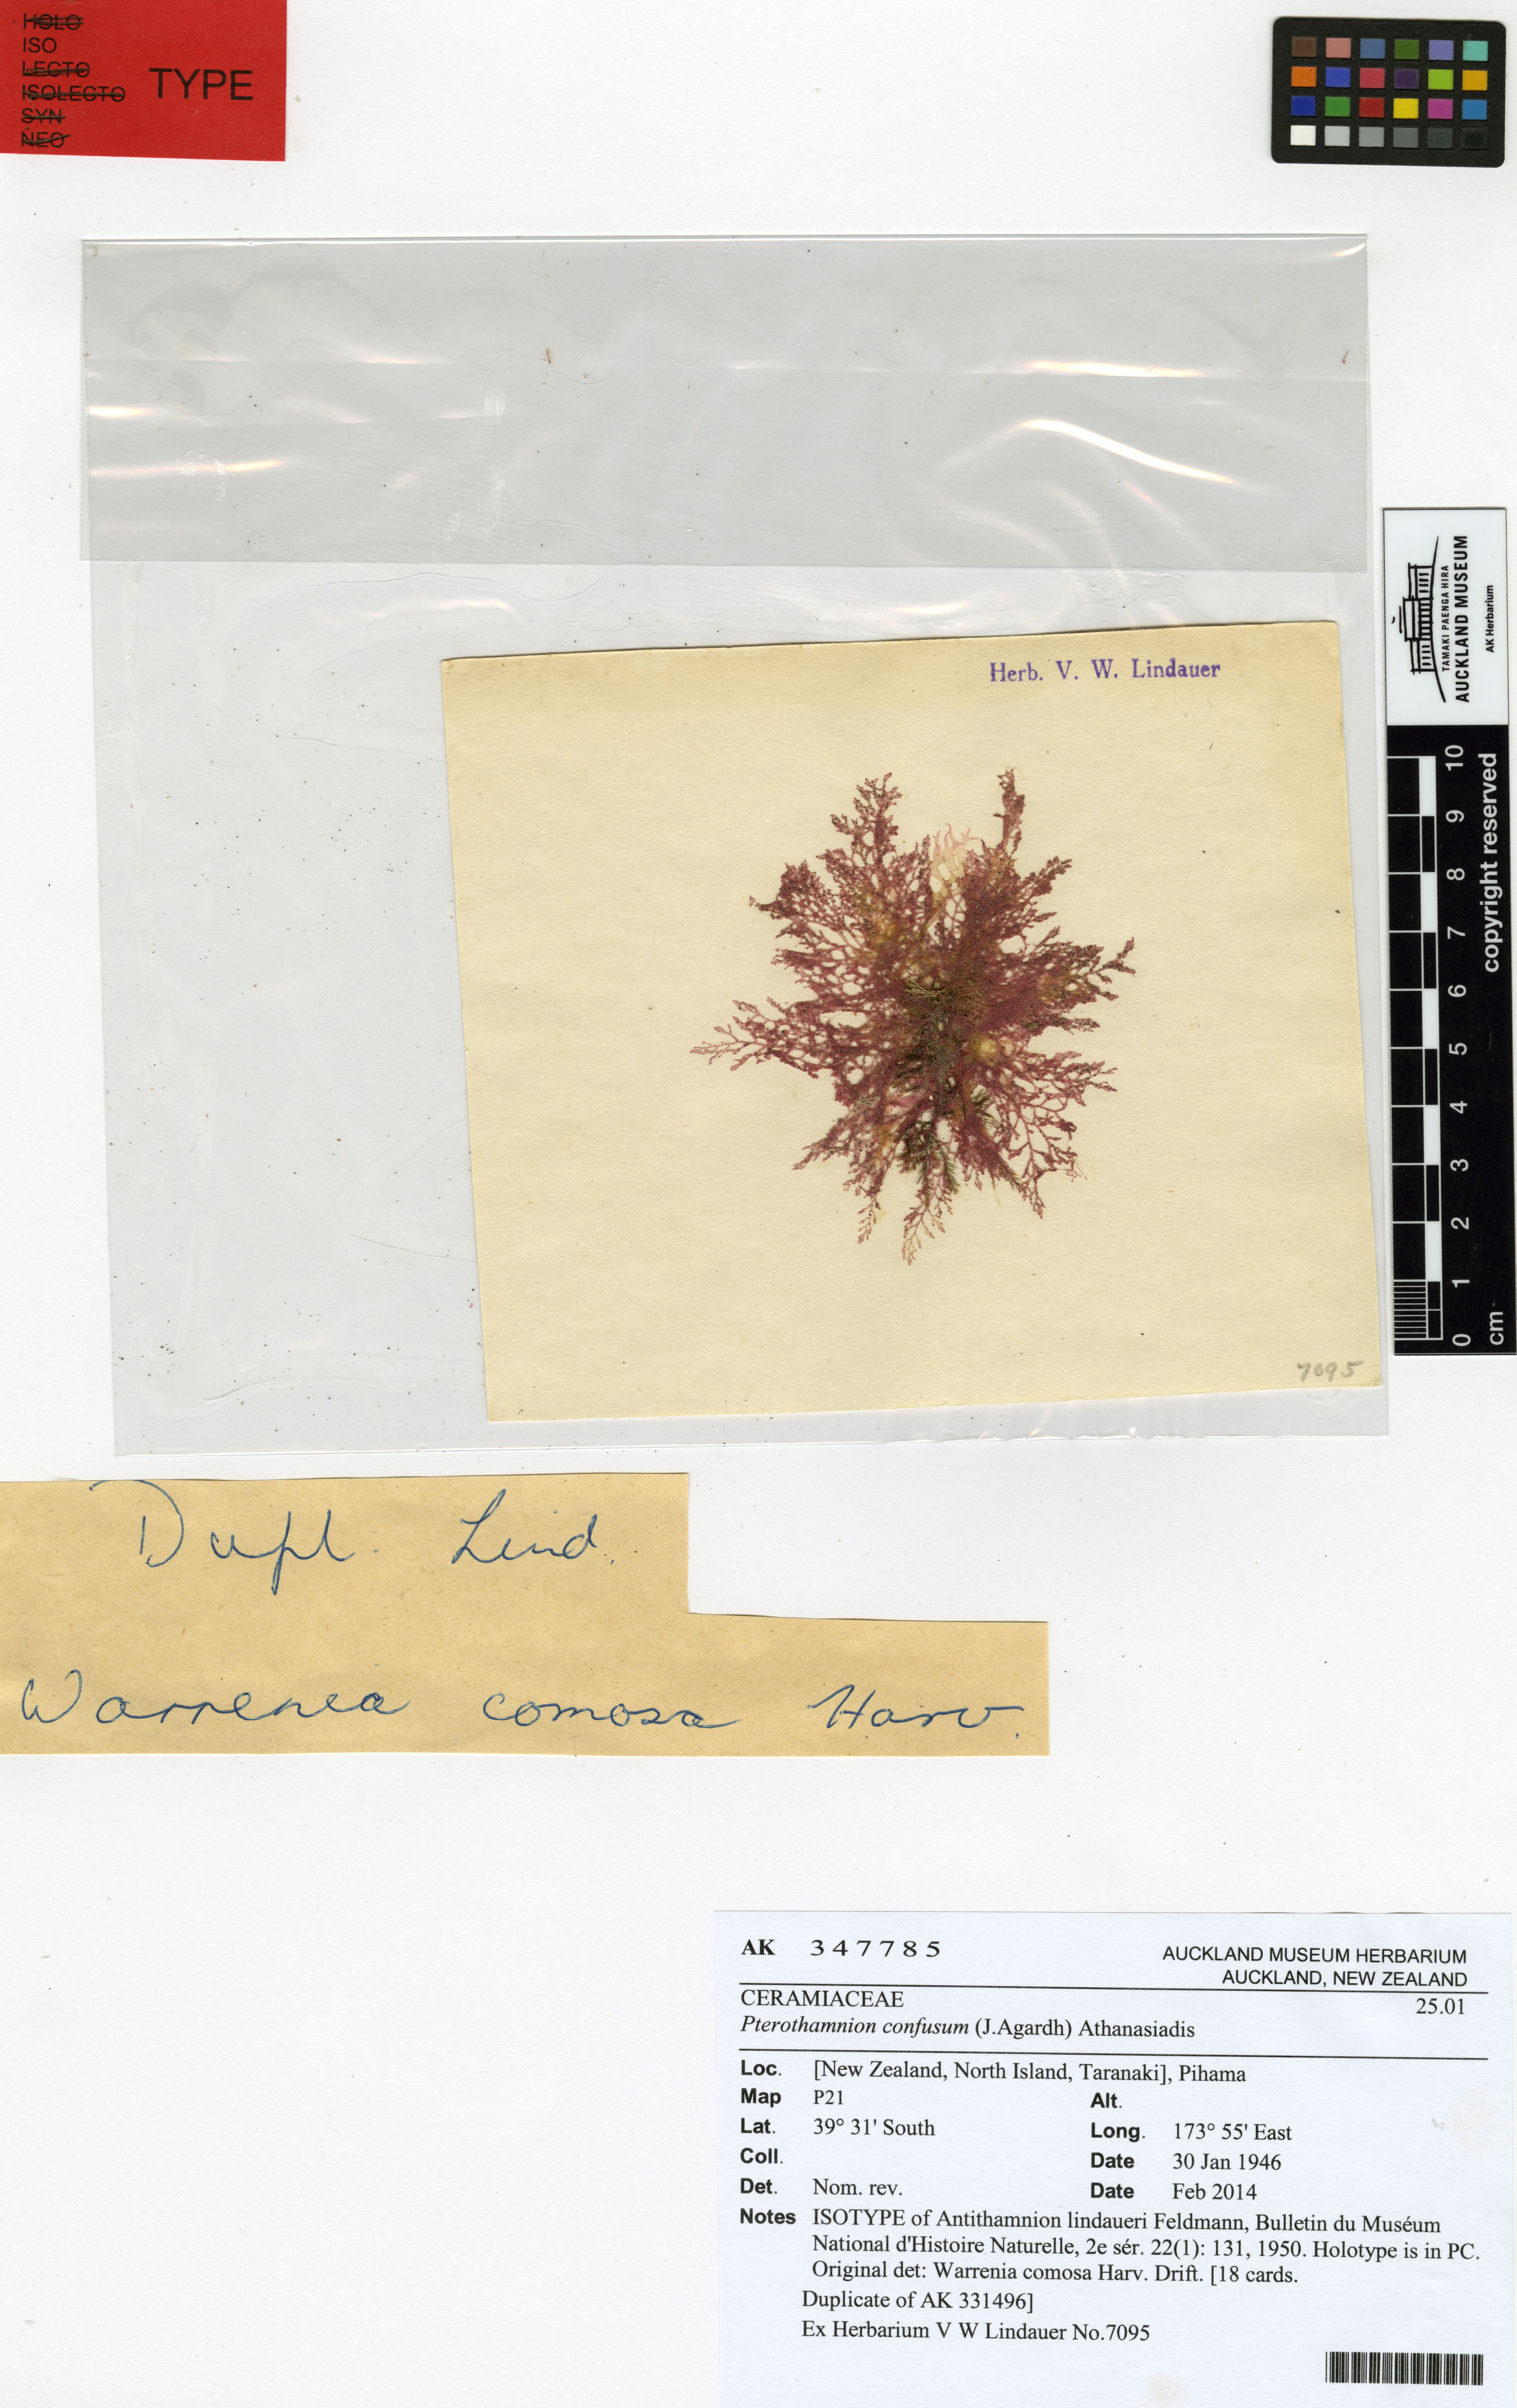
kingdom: Plantae
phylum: Rhodophyta
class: Florideophyceae
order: Ceramiales
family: Ceramiaceae
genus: Pterothamnion
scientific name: Pterothamnion confusum
